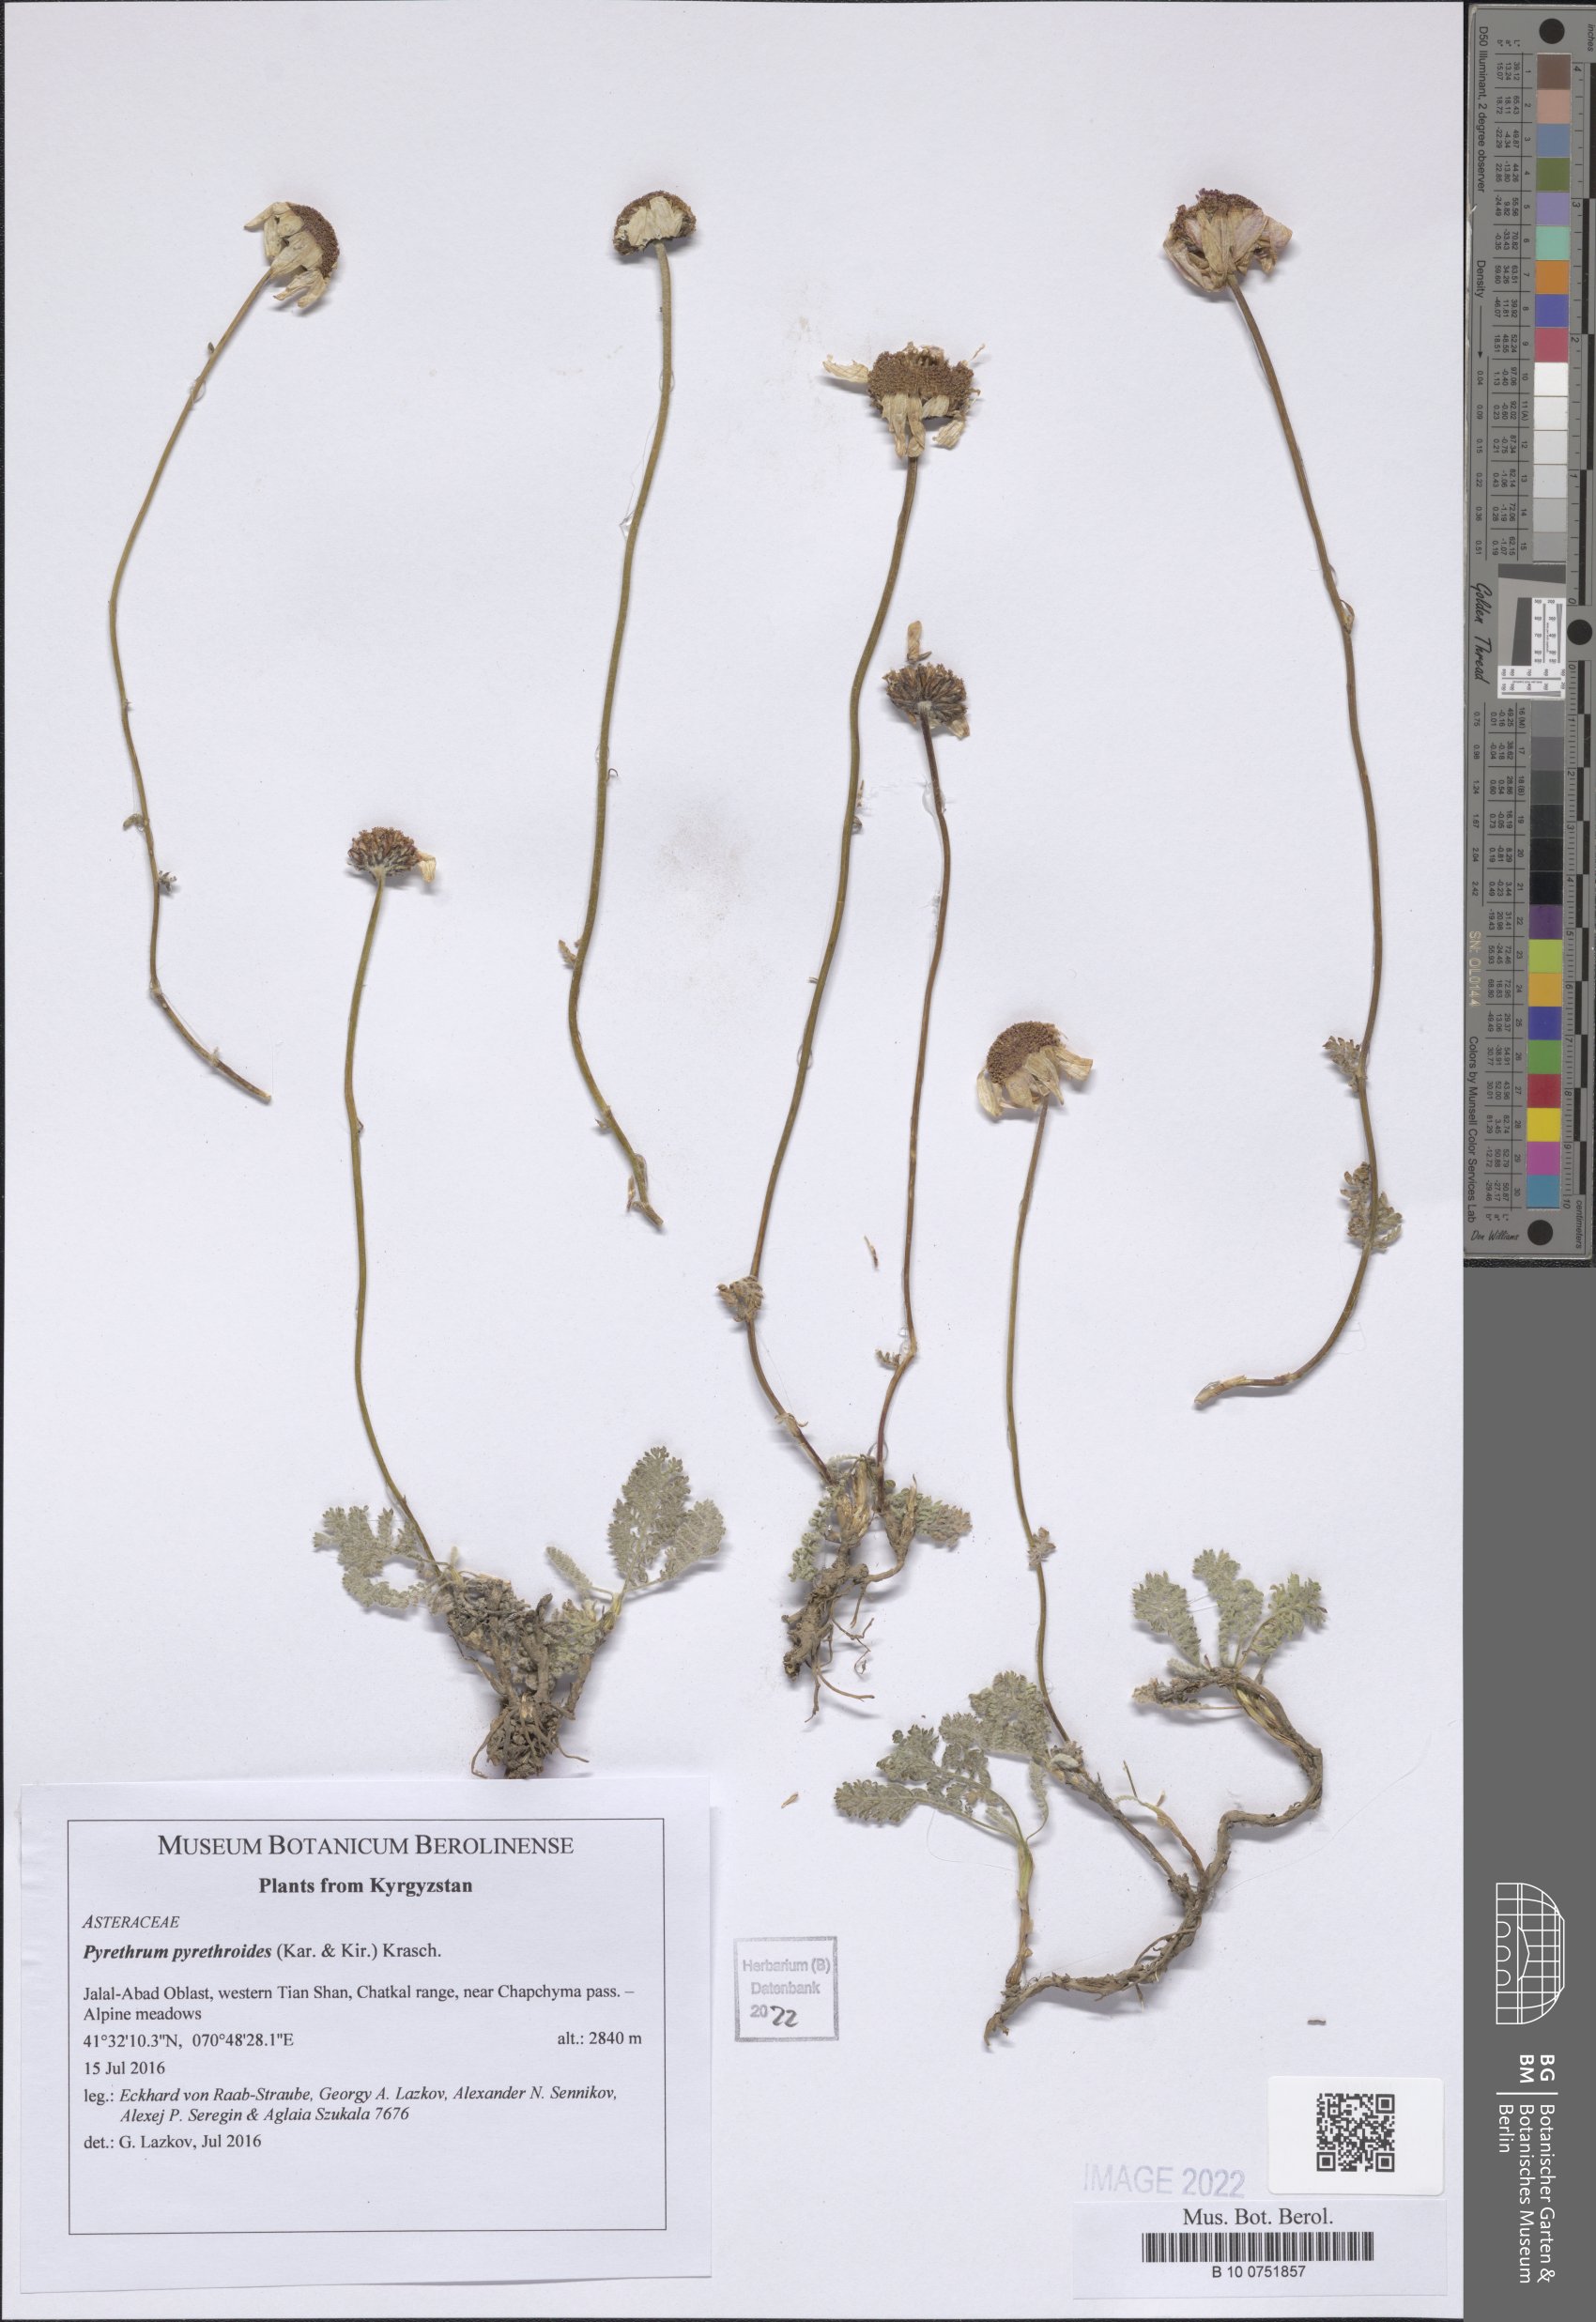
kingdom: Plantae
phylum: Tracheophyta
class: Magnoliopsida
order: Asterales
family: Asteraceae
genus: Richteria
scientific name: Richteria pyrethroides
